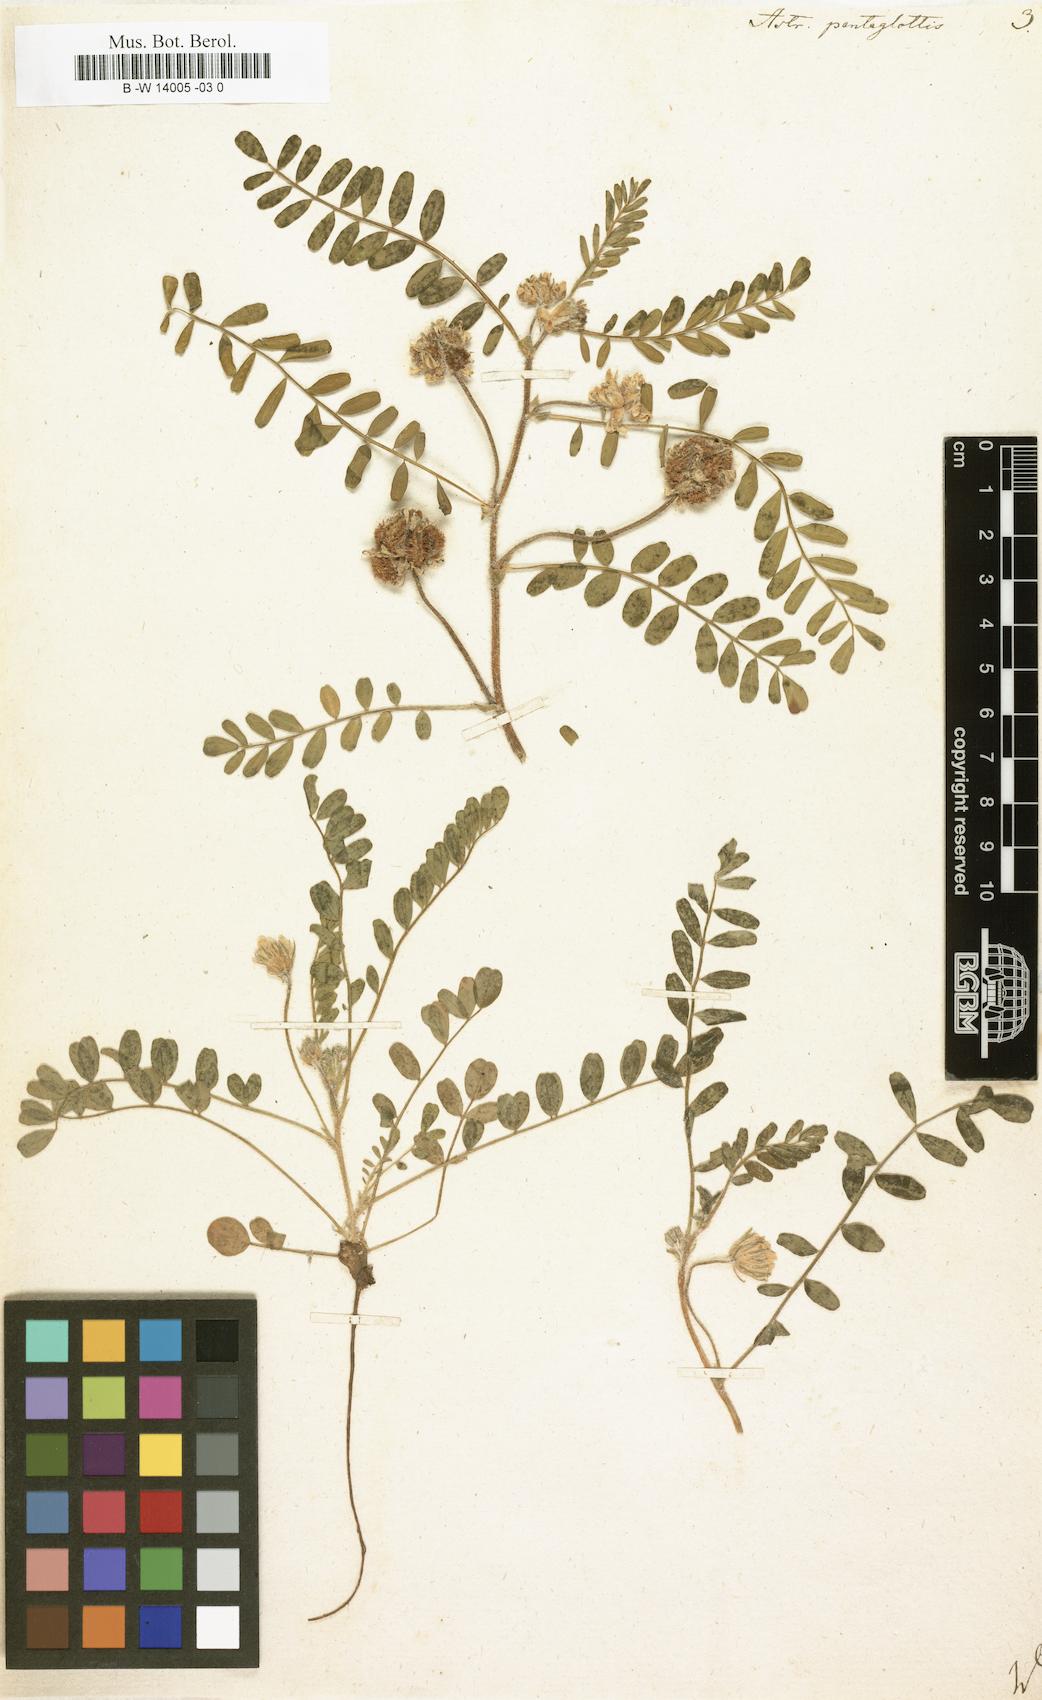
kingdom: Plantae
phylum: Tracheophyta
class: Magnoliopsida
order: Fabales
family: Fabaceae
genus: Astragalus
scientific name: Astragalus echinatus
